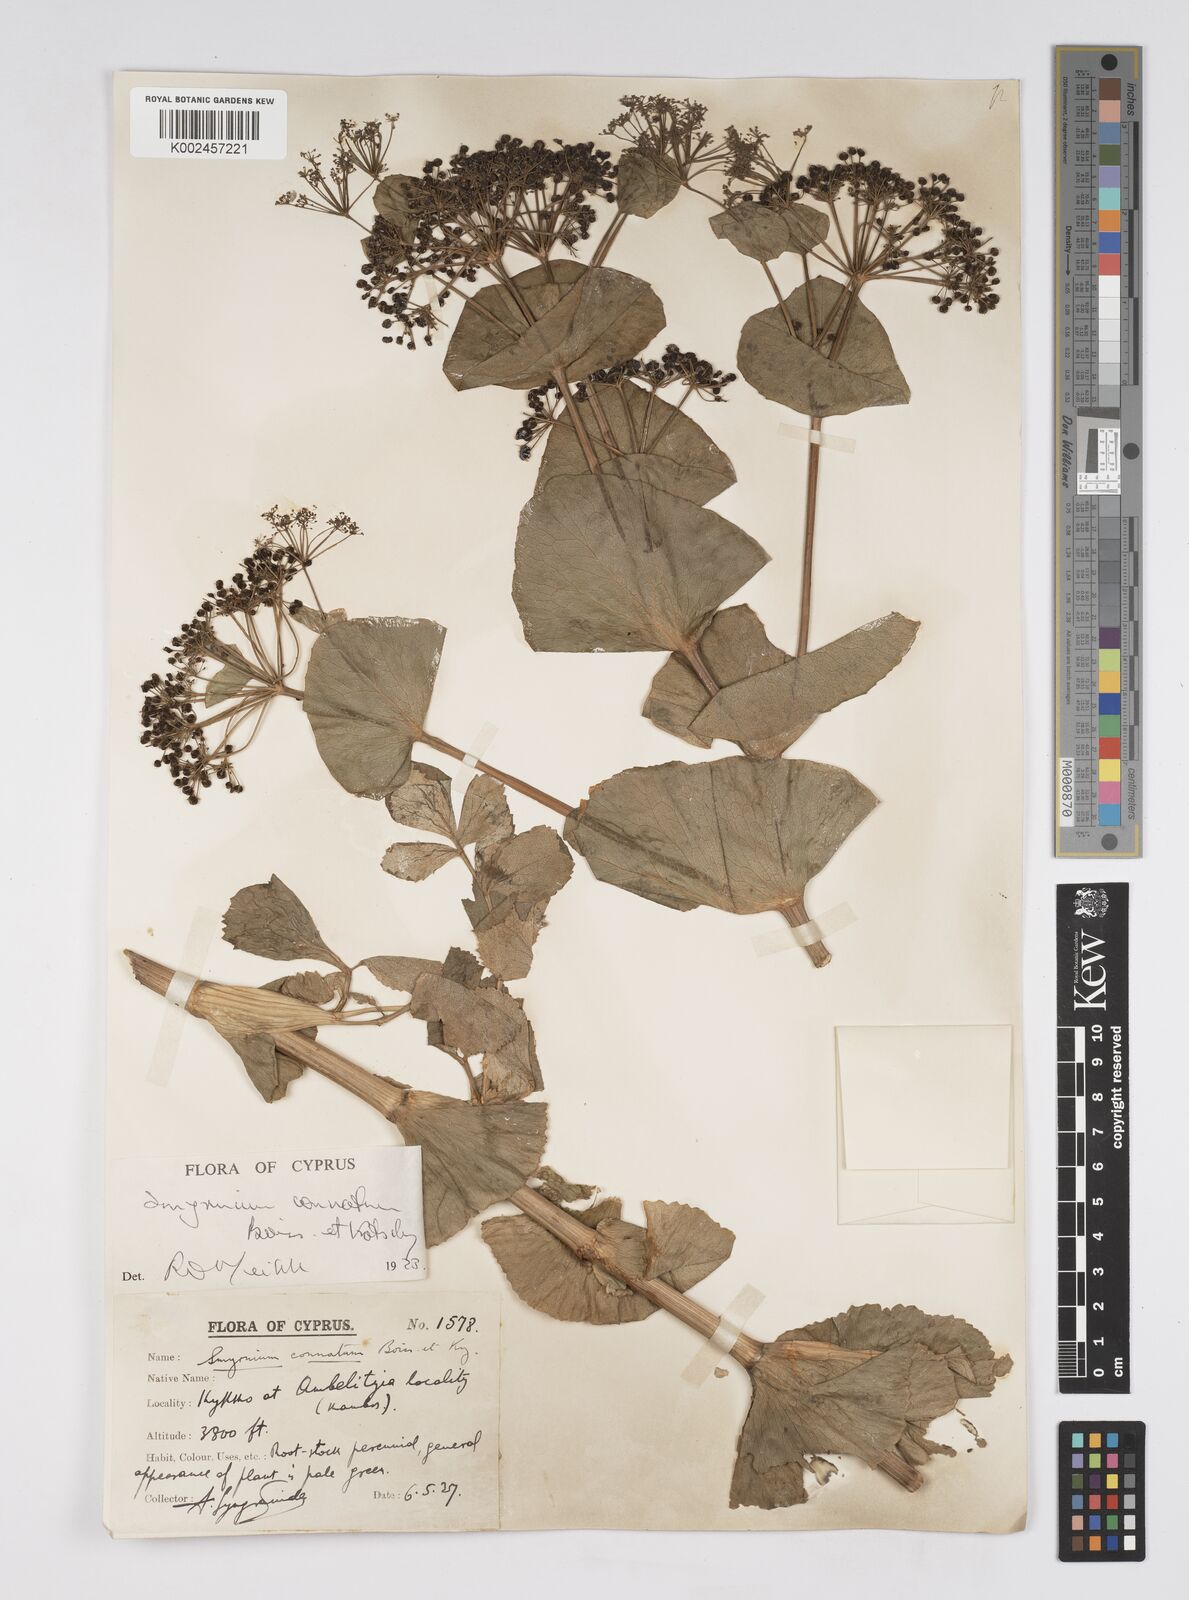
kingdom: Plantae
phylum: Tracheophyta
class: Magnoliopsida
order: Apiales
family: Apiaceae
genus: Smyrnium
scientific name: Smyrnium connatum
